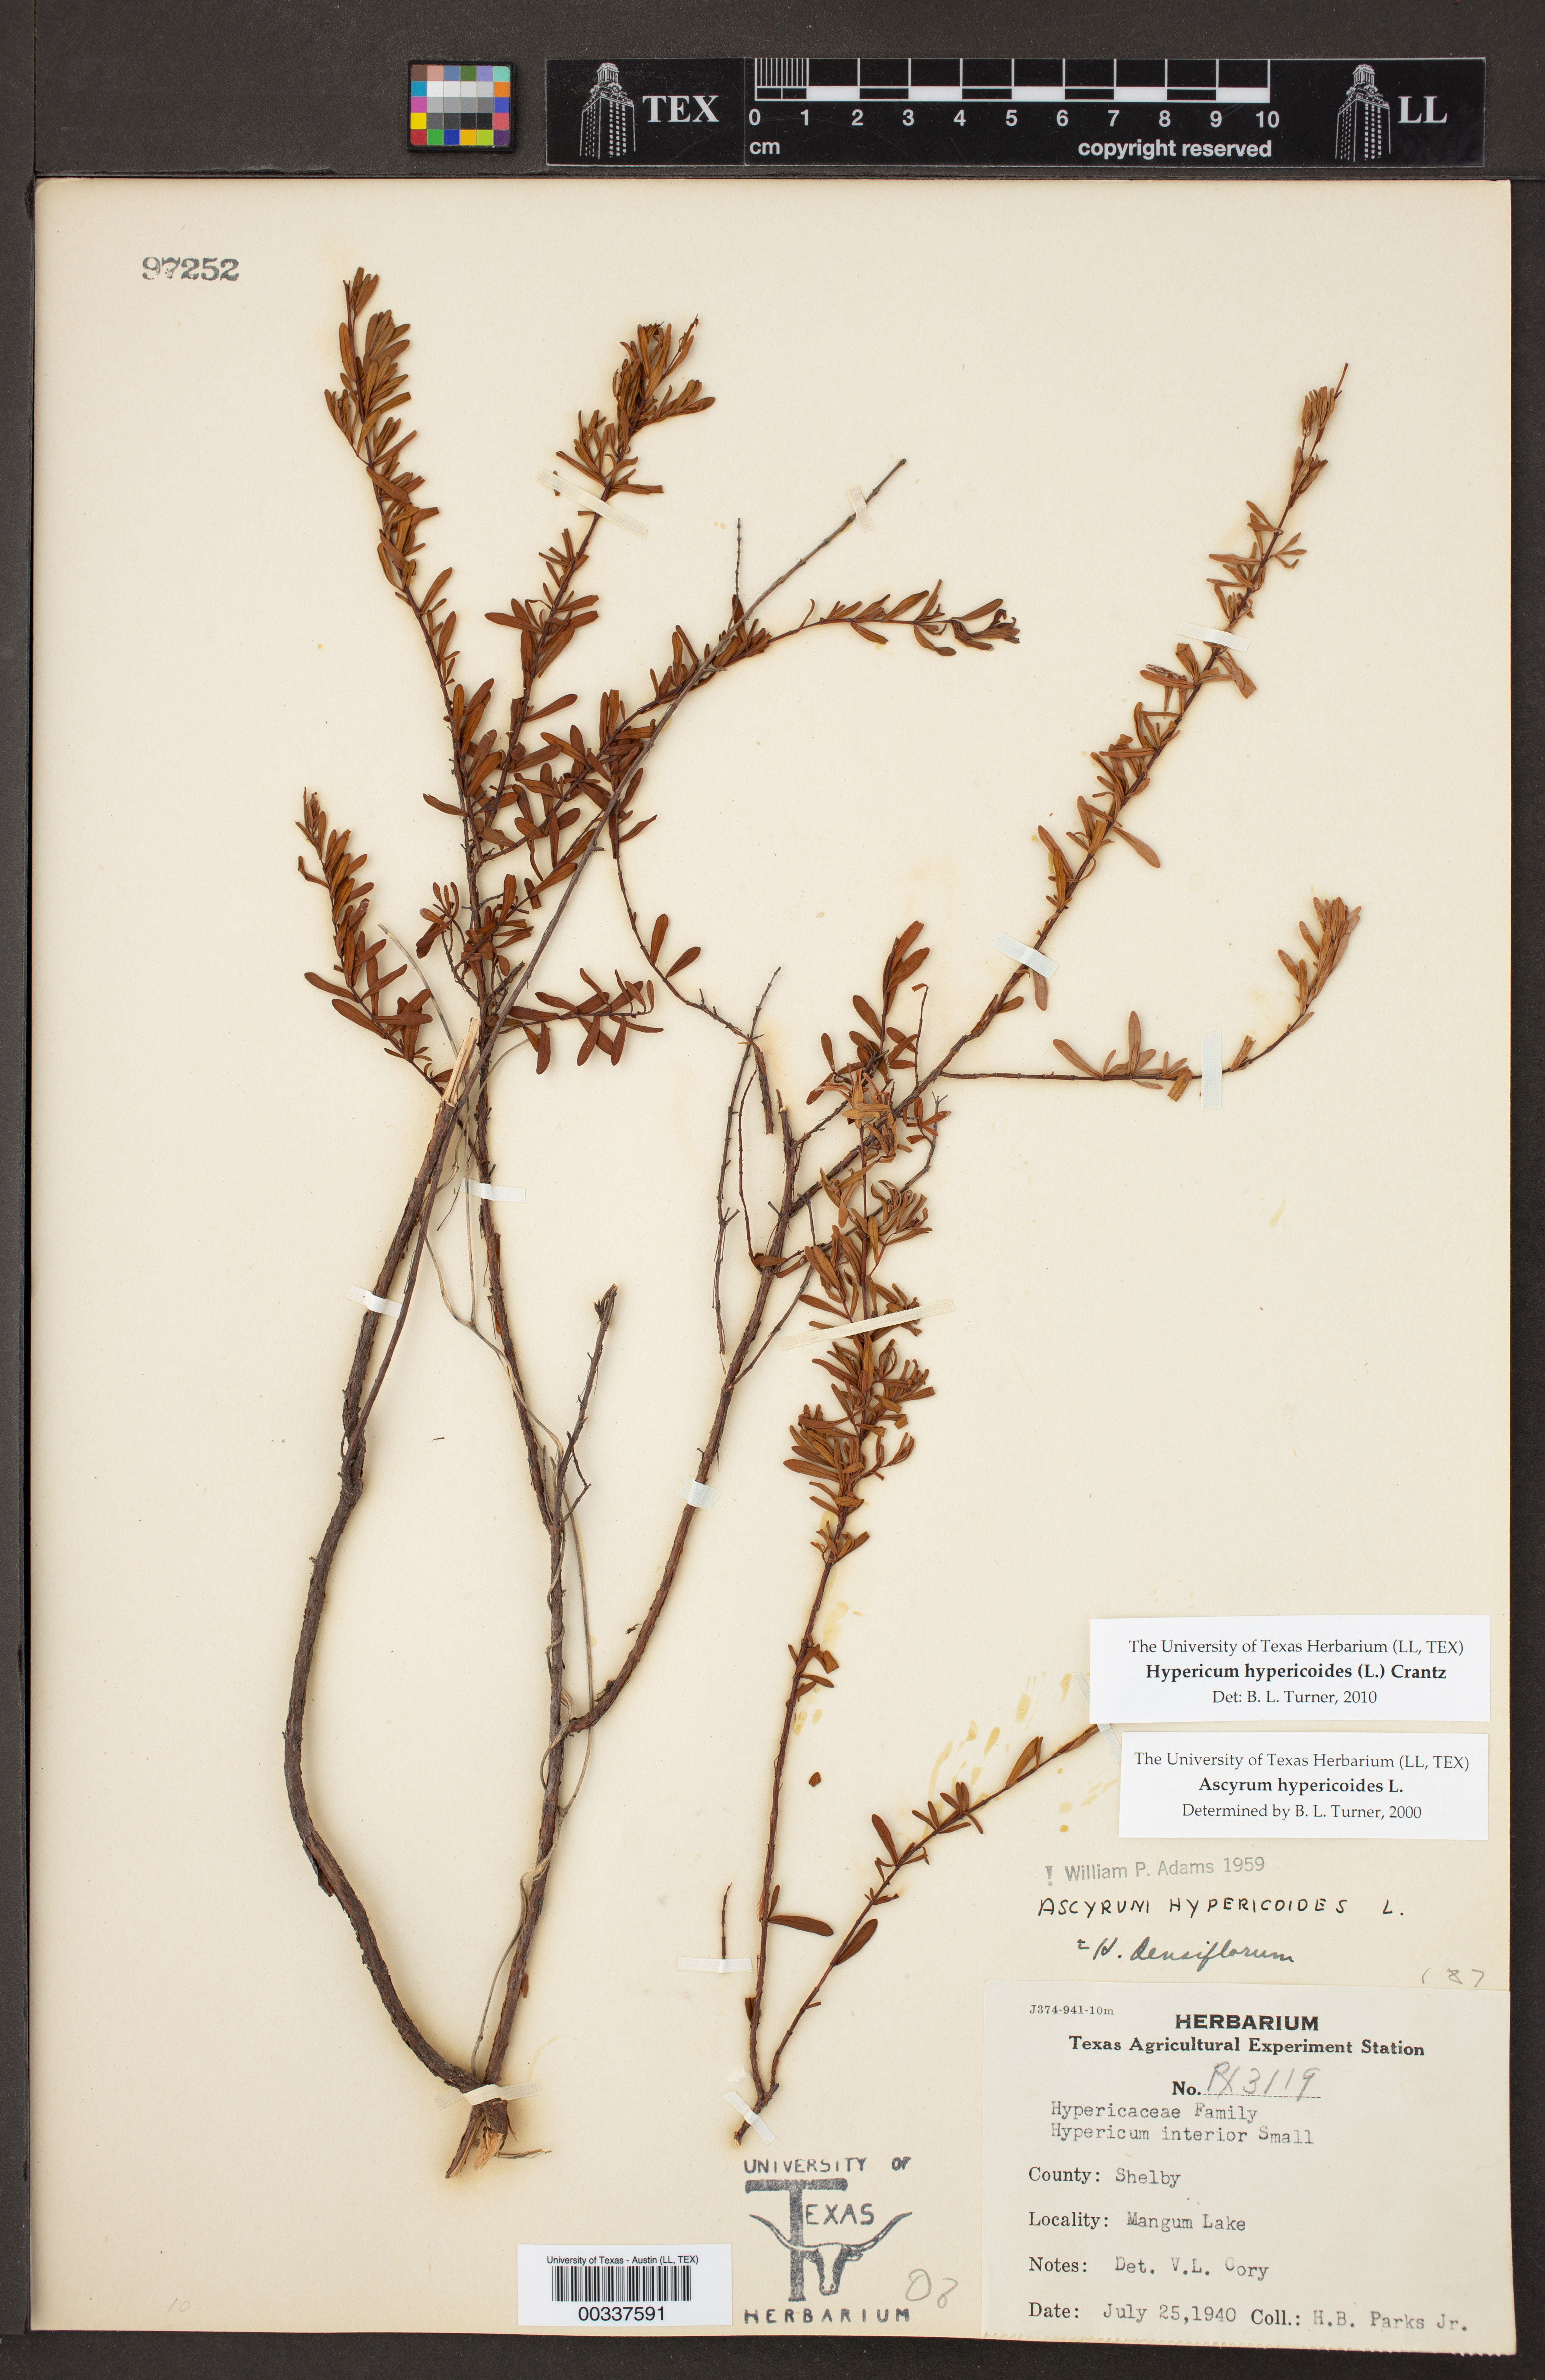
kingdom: Plantae
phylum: Tracheophyta
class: Magnoliopsida
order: Malpighiales
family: Hypericaceae
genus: Hypericum
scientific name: Hypericum hypericoides
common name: St. andrew's cross
